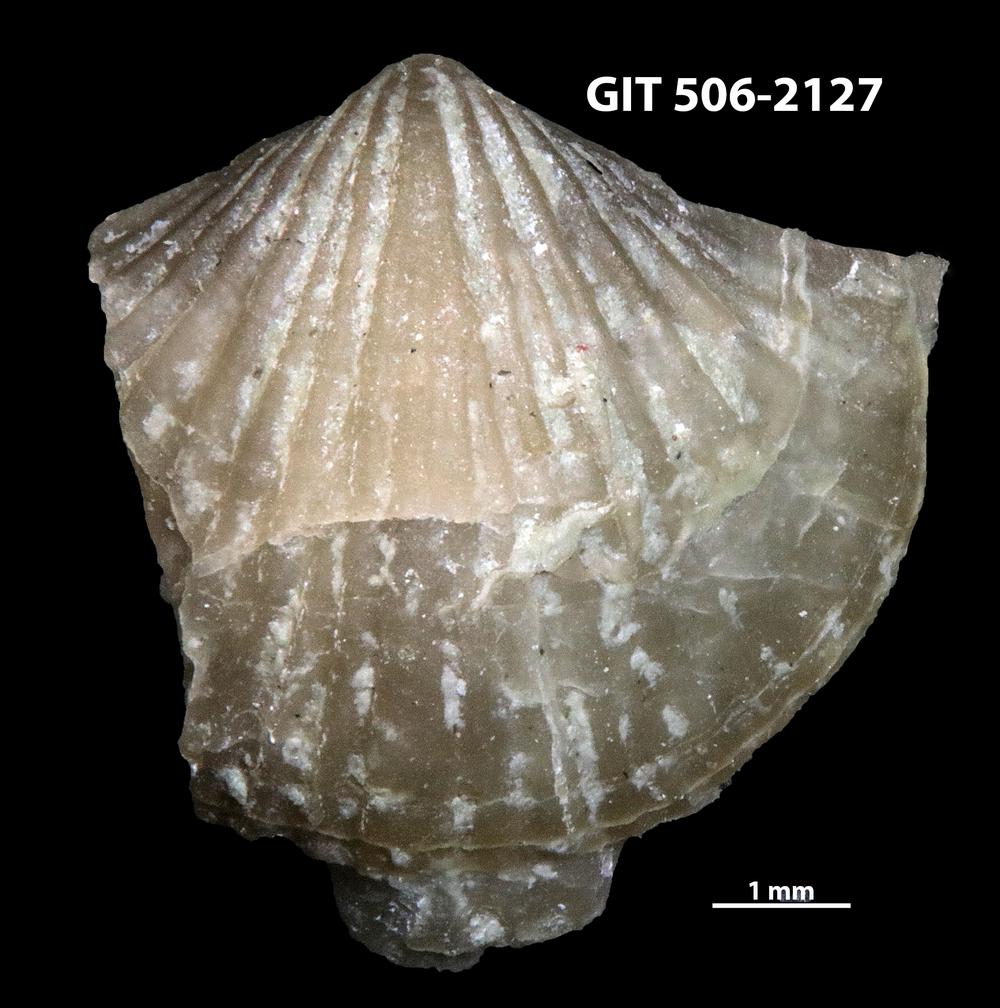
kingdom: Animalia
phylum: Brachiopoda
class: Rhynchonellata
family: Skenidiidae
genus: Skenidioides
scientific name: Skenidioides hymiri
